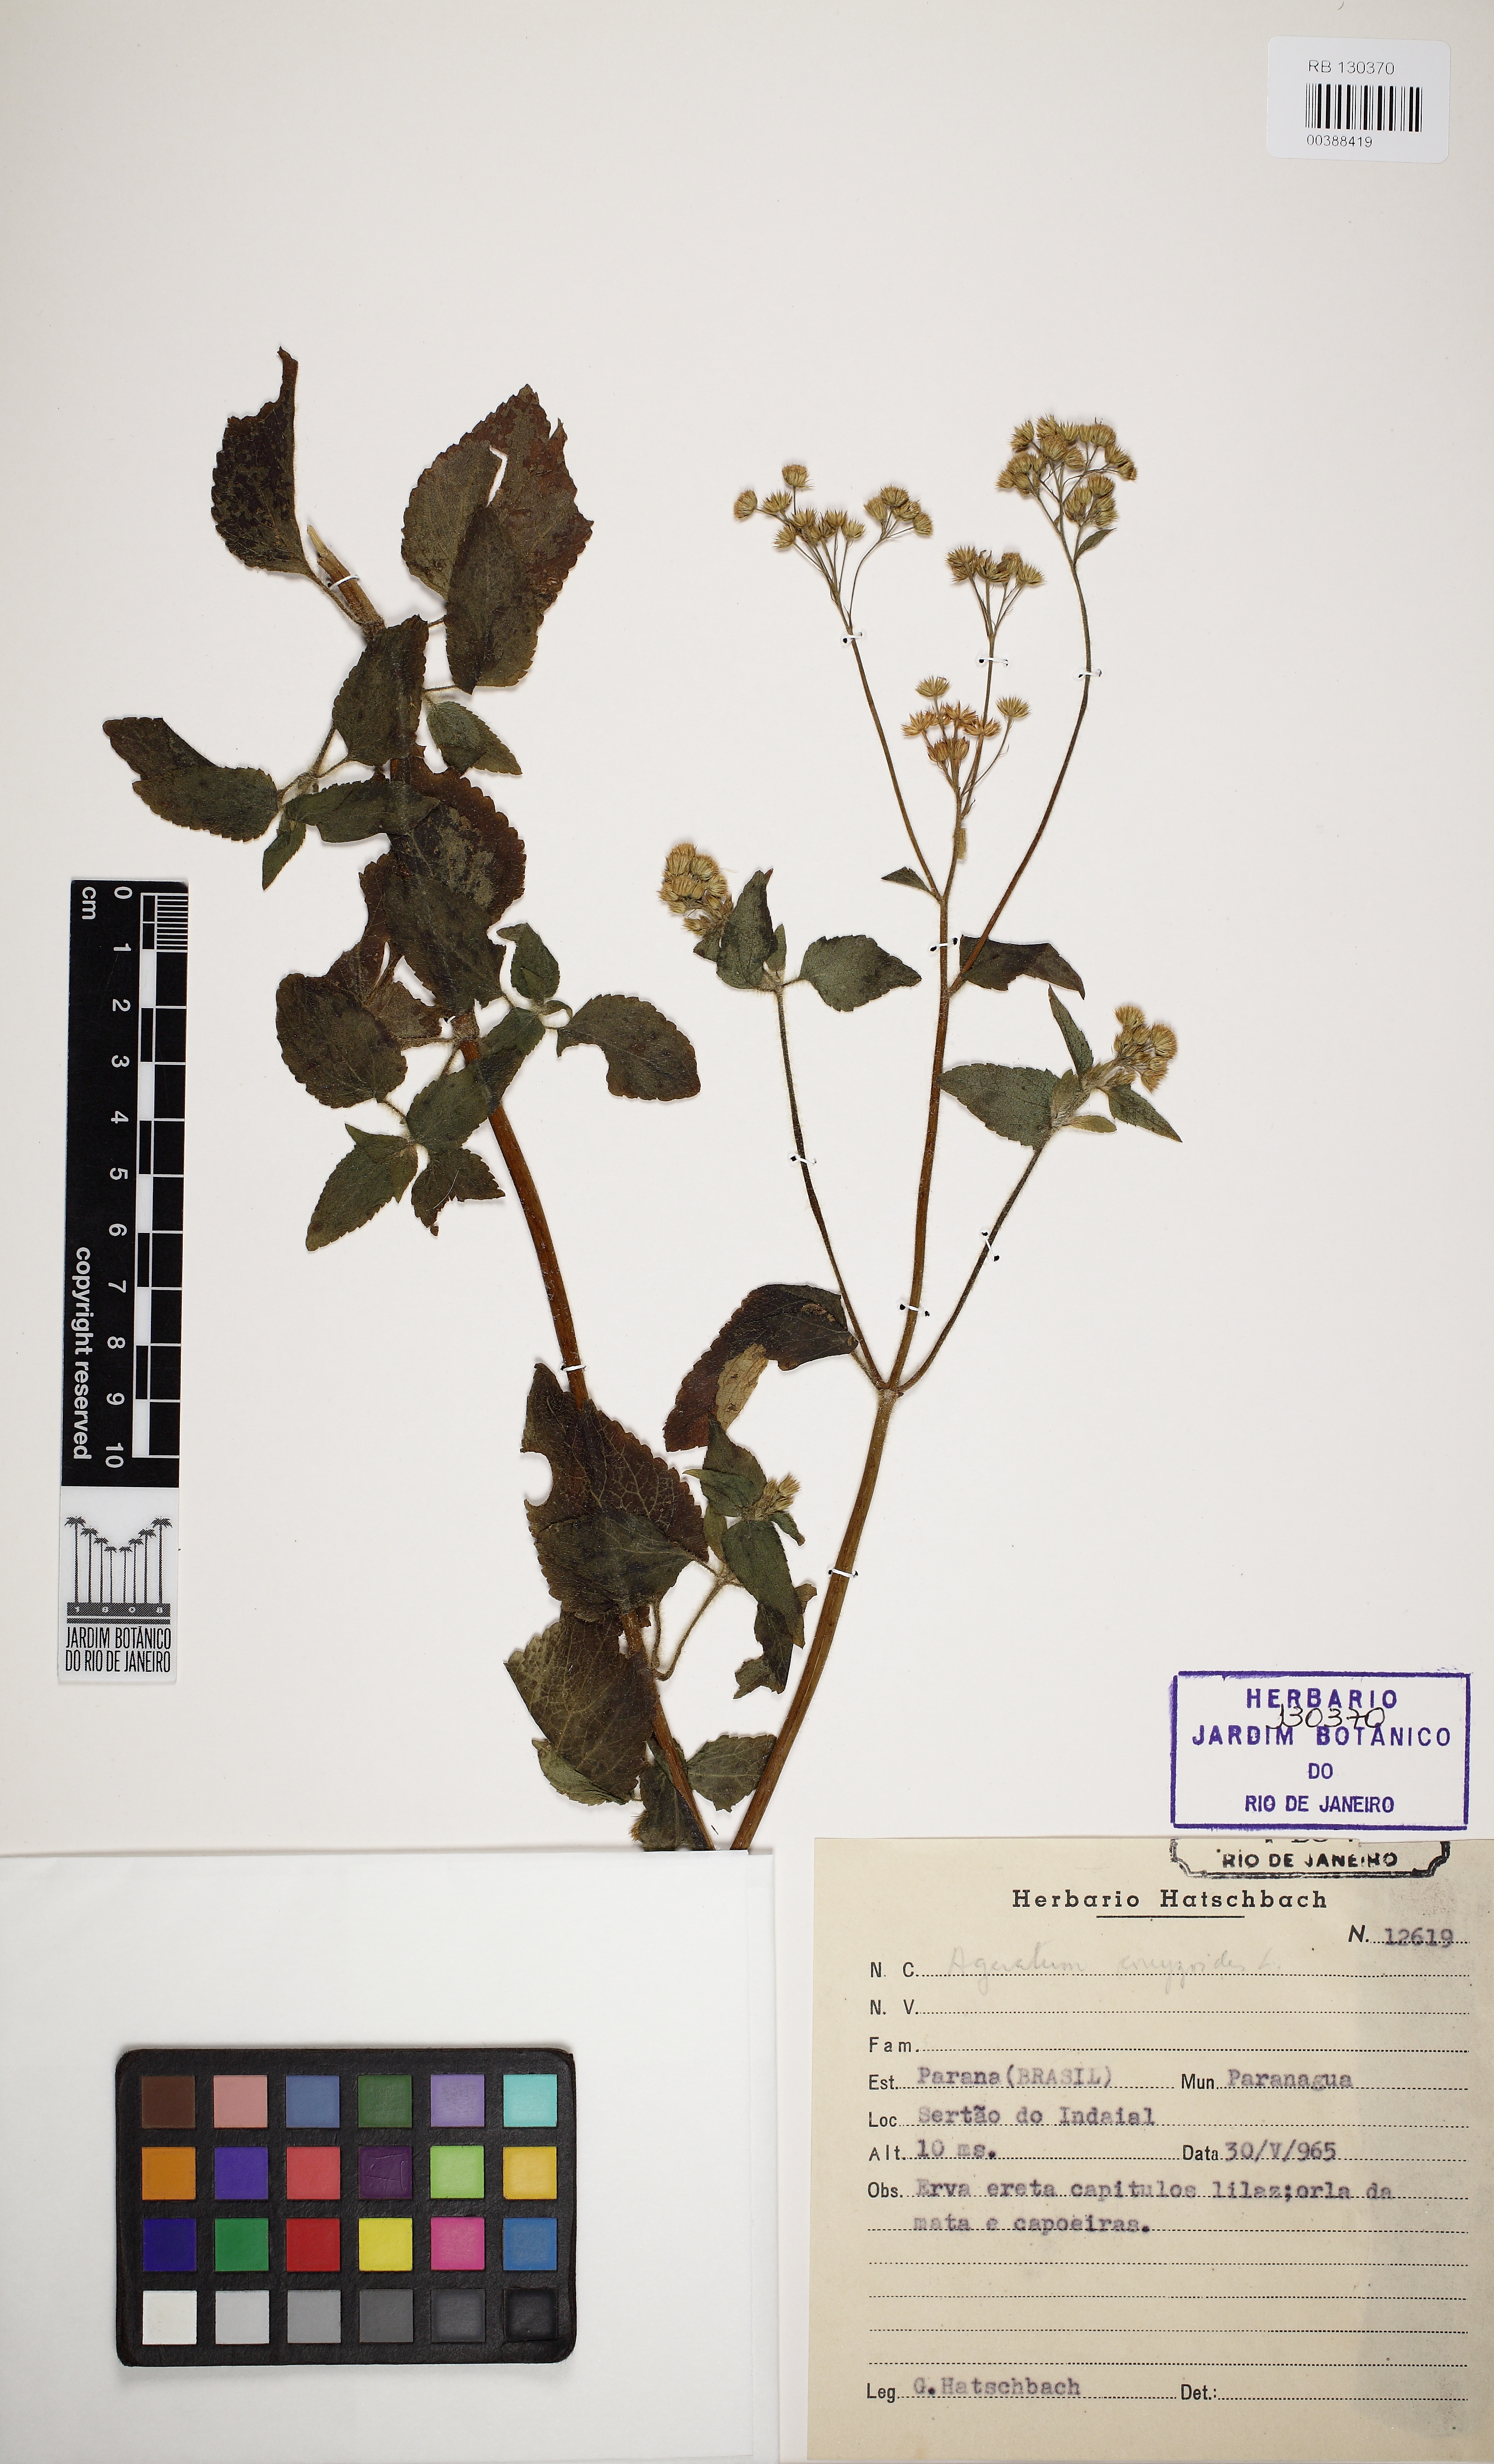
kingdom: Plantae
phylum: Tracheophyta
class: Magnoliopsida
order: Asterales
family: Asteraceae
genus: Ageratum
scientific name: Ageratum conyzoides
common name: Tropical whiteweed
